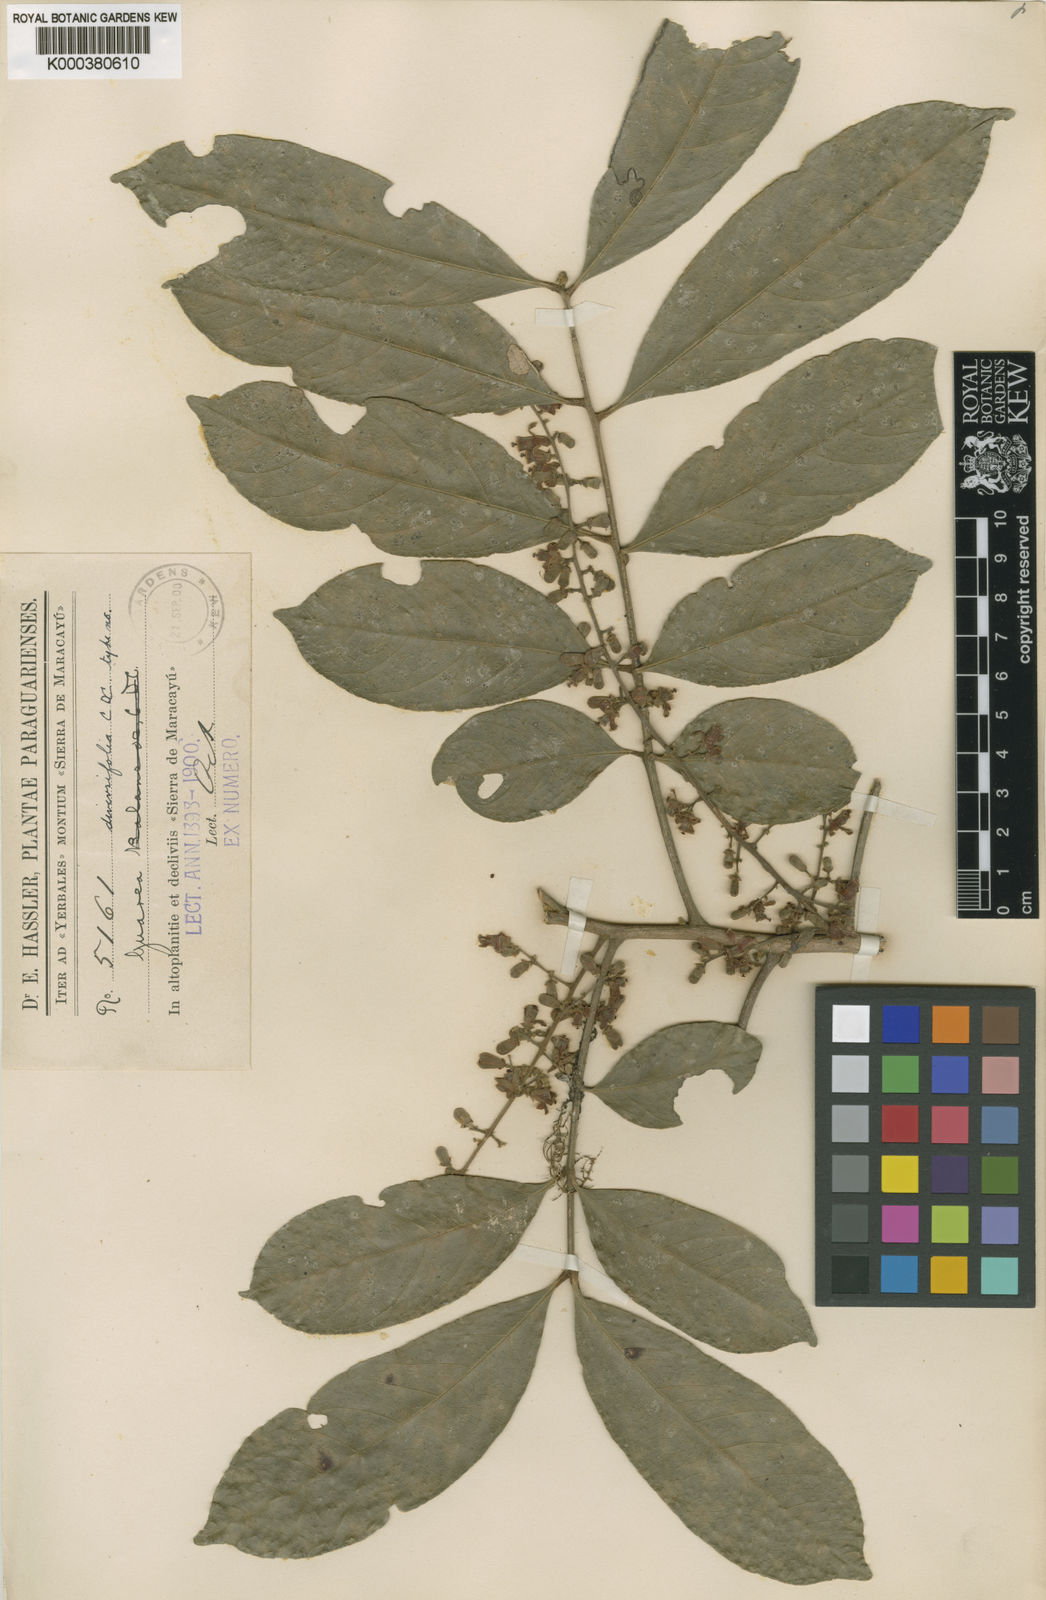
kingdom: Plantae
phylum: Tracheophyta
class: Magnoliopsida
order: Sapindales
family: Meliaceae
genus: Guarea
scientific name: Guarea macrophylla
